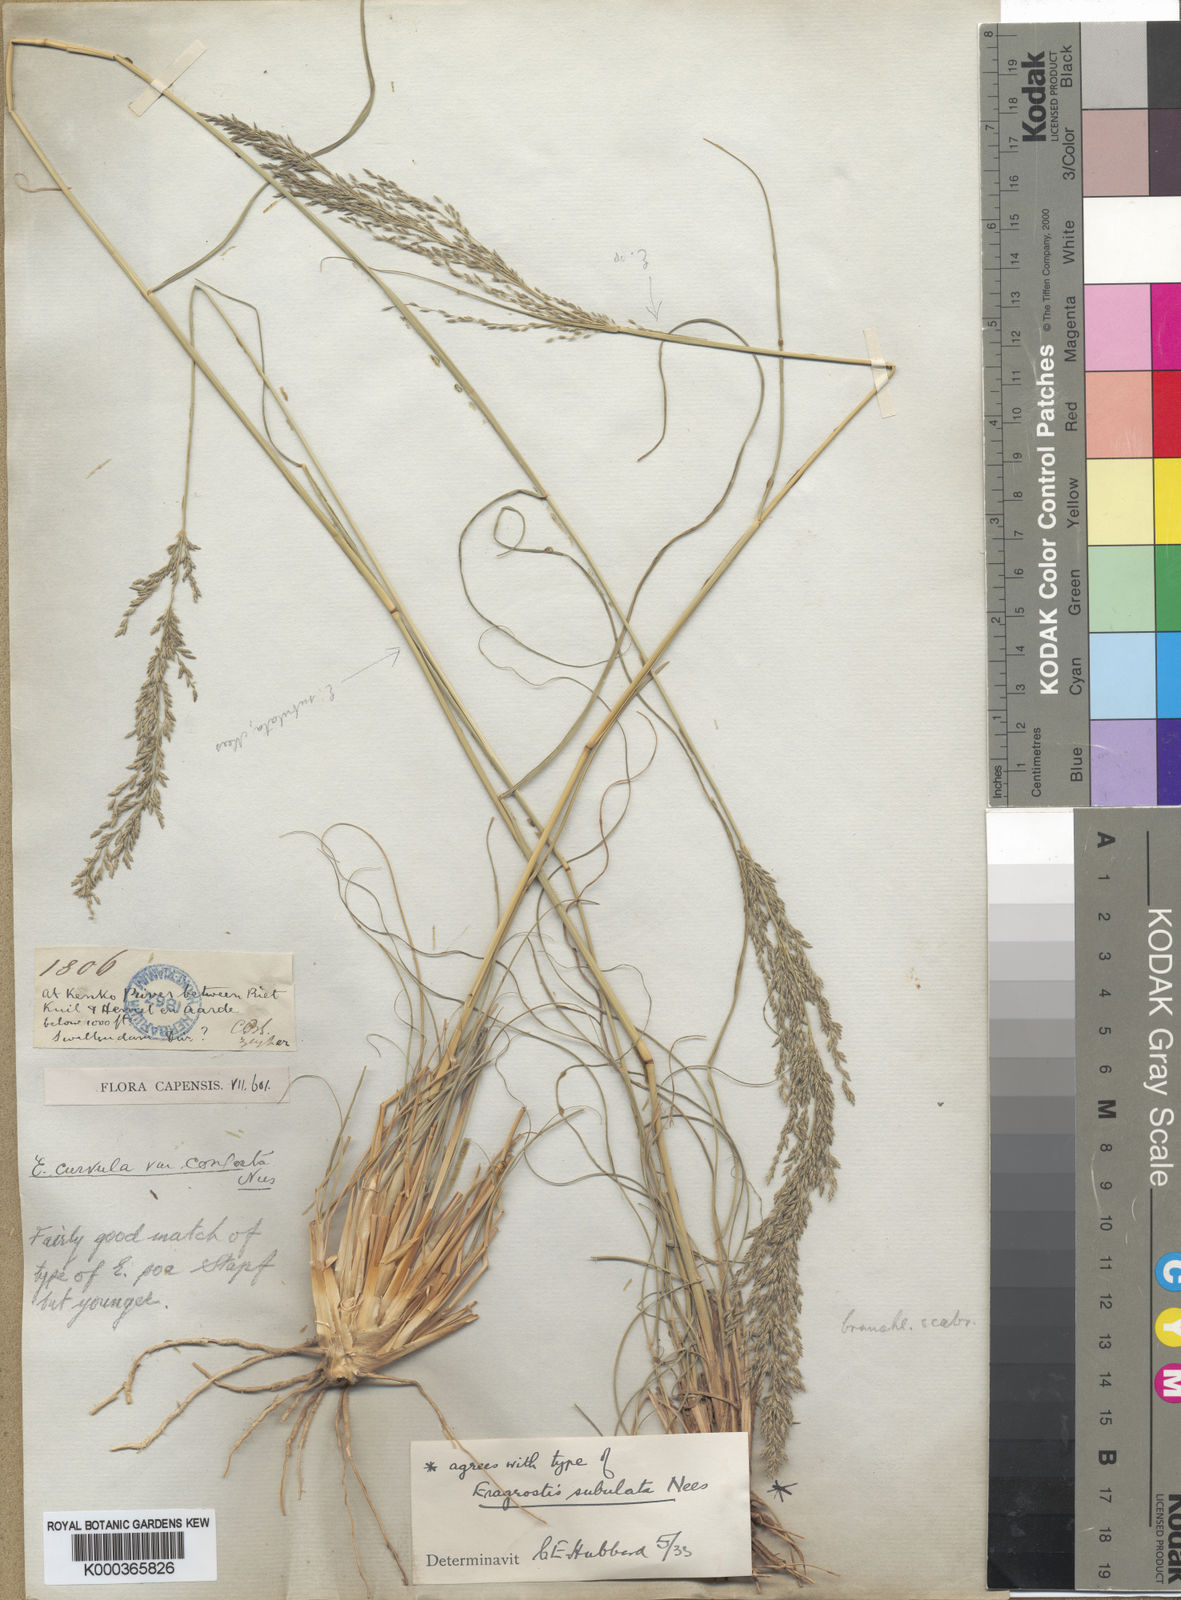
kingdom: Plantae
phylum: Tracheophyta
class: Liliopsida
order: Poales
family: Poaceae
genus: Eragrostis
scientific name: Eragrostis curvula
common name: African love-grass
